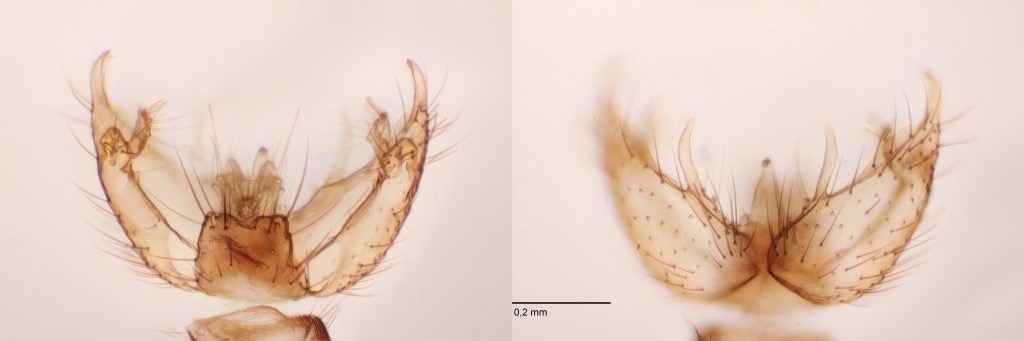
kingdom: Animalia
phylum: Arthropoda
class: Insecta
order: Diptera
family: Mycetophilidae
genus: Coelophthinia
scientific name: Coelophthinia thoracica
